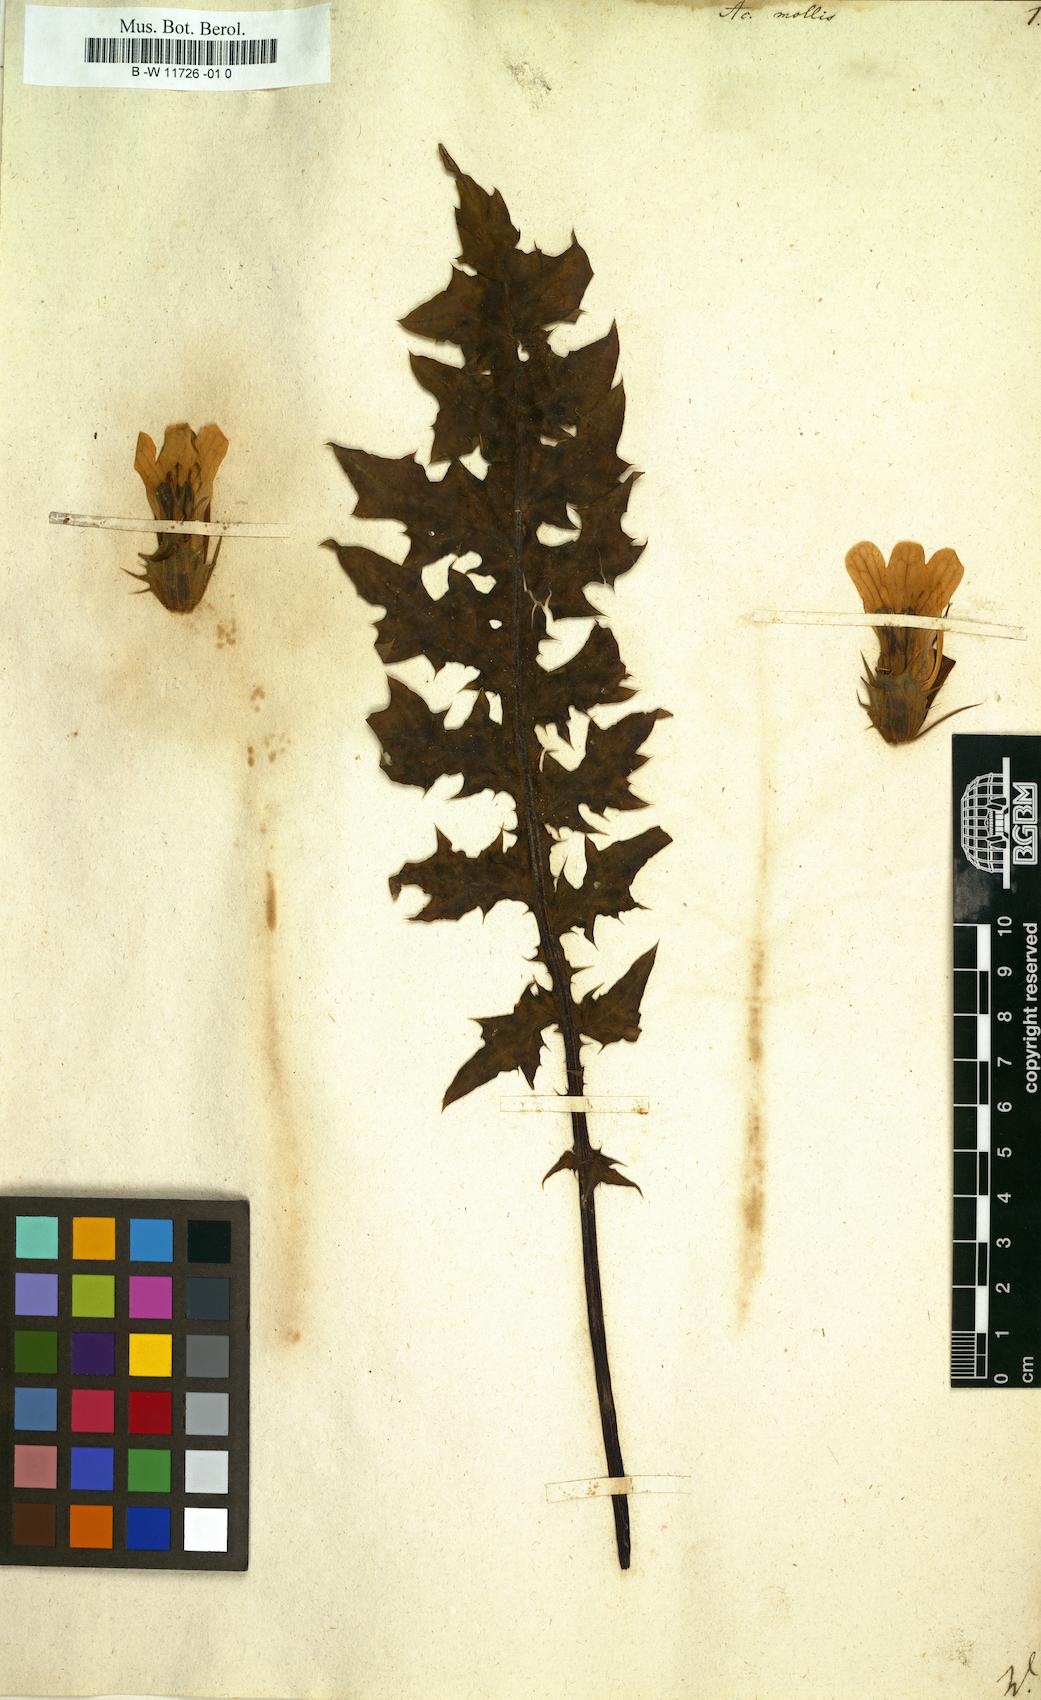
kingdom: Plantae
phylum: Tracheophyta
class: Magnoliopsida
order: Lamiales
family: Acanthaceae
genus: Acanthus
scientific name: Acanthus mollis
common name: Bear's-breech
